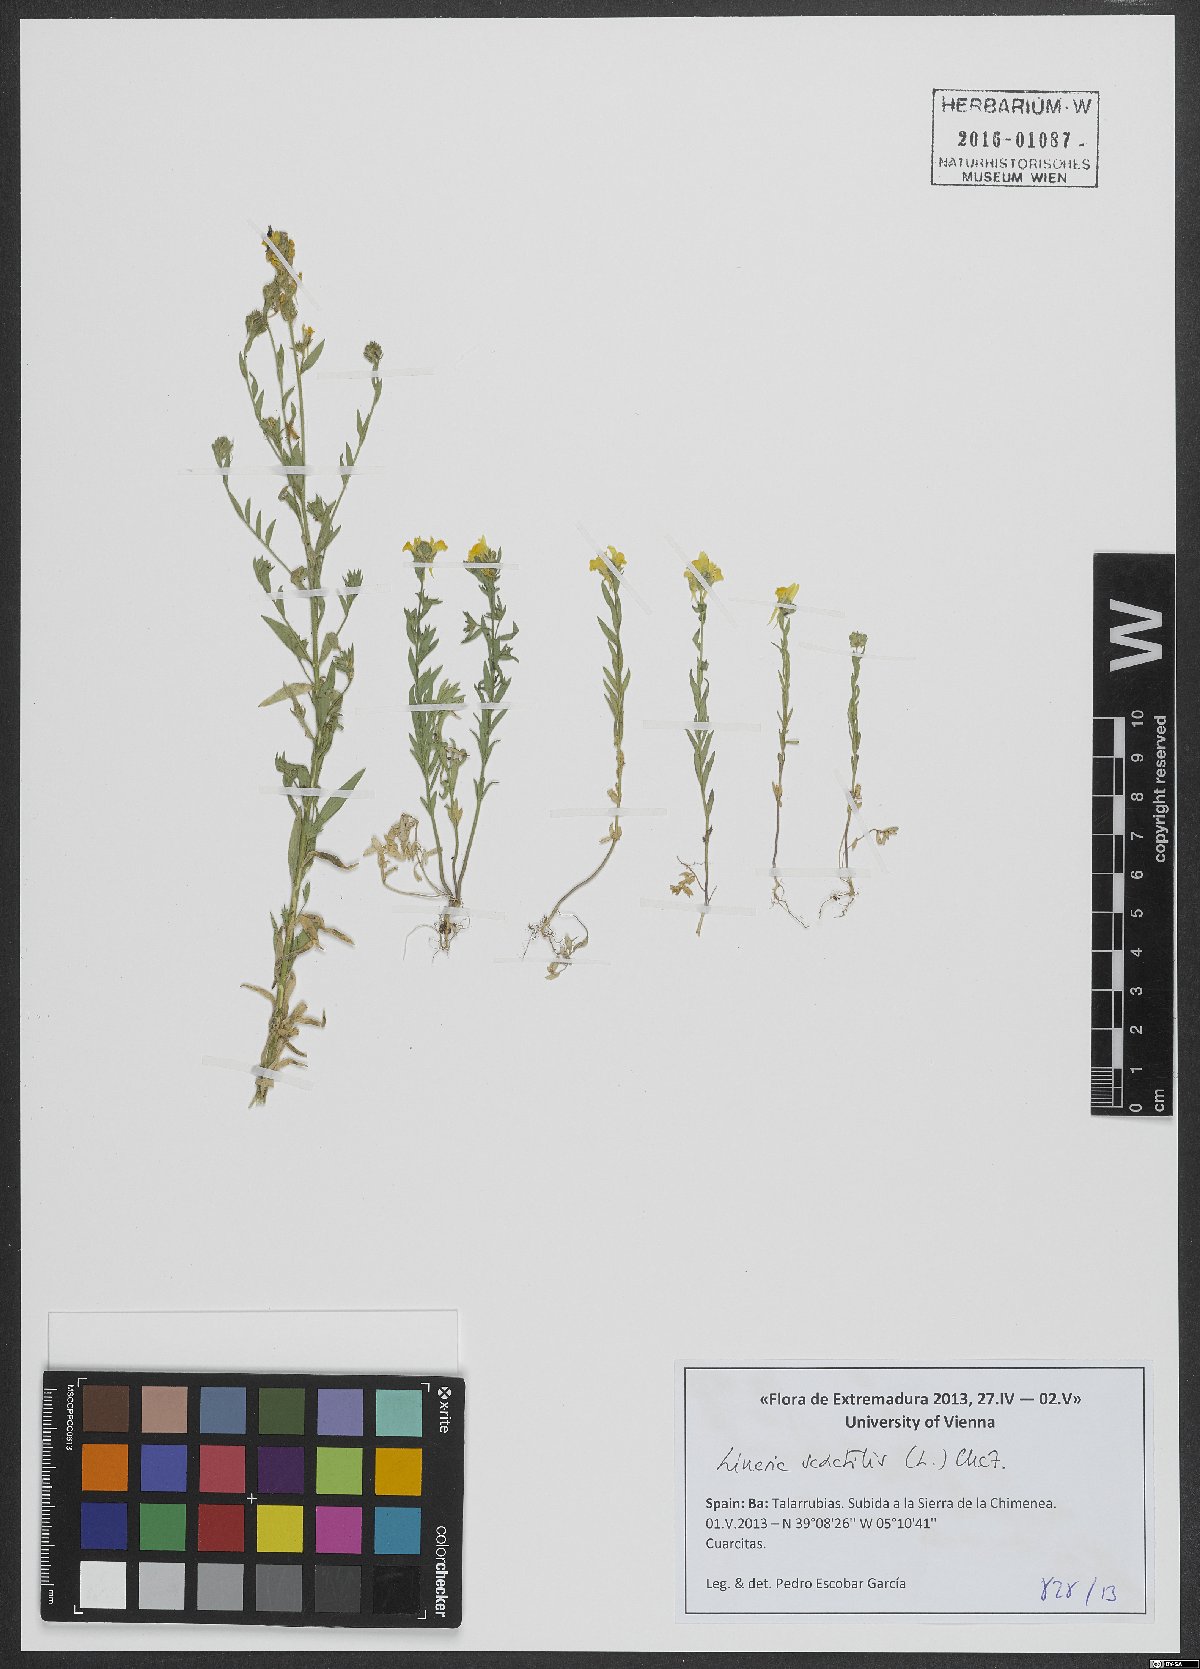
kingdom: Plantae
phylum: Tracheophyta
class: Magnoliopsida
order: Lamiales
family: Plantaginaceae
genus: Linaria
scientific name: Linaria saxatilis
